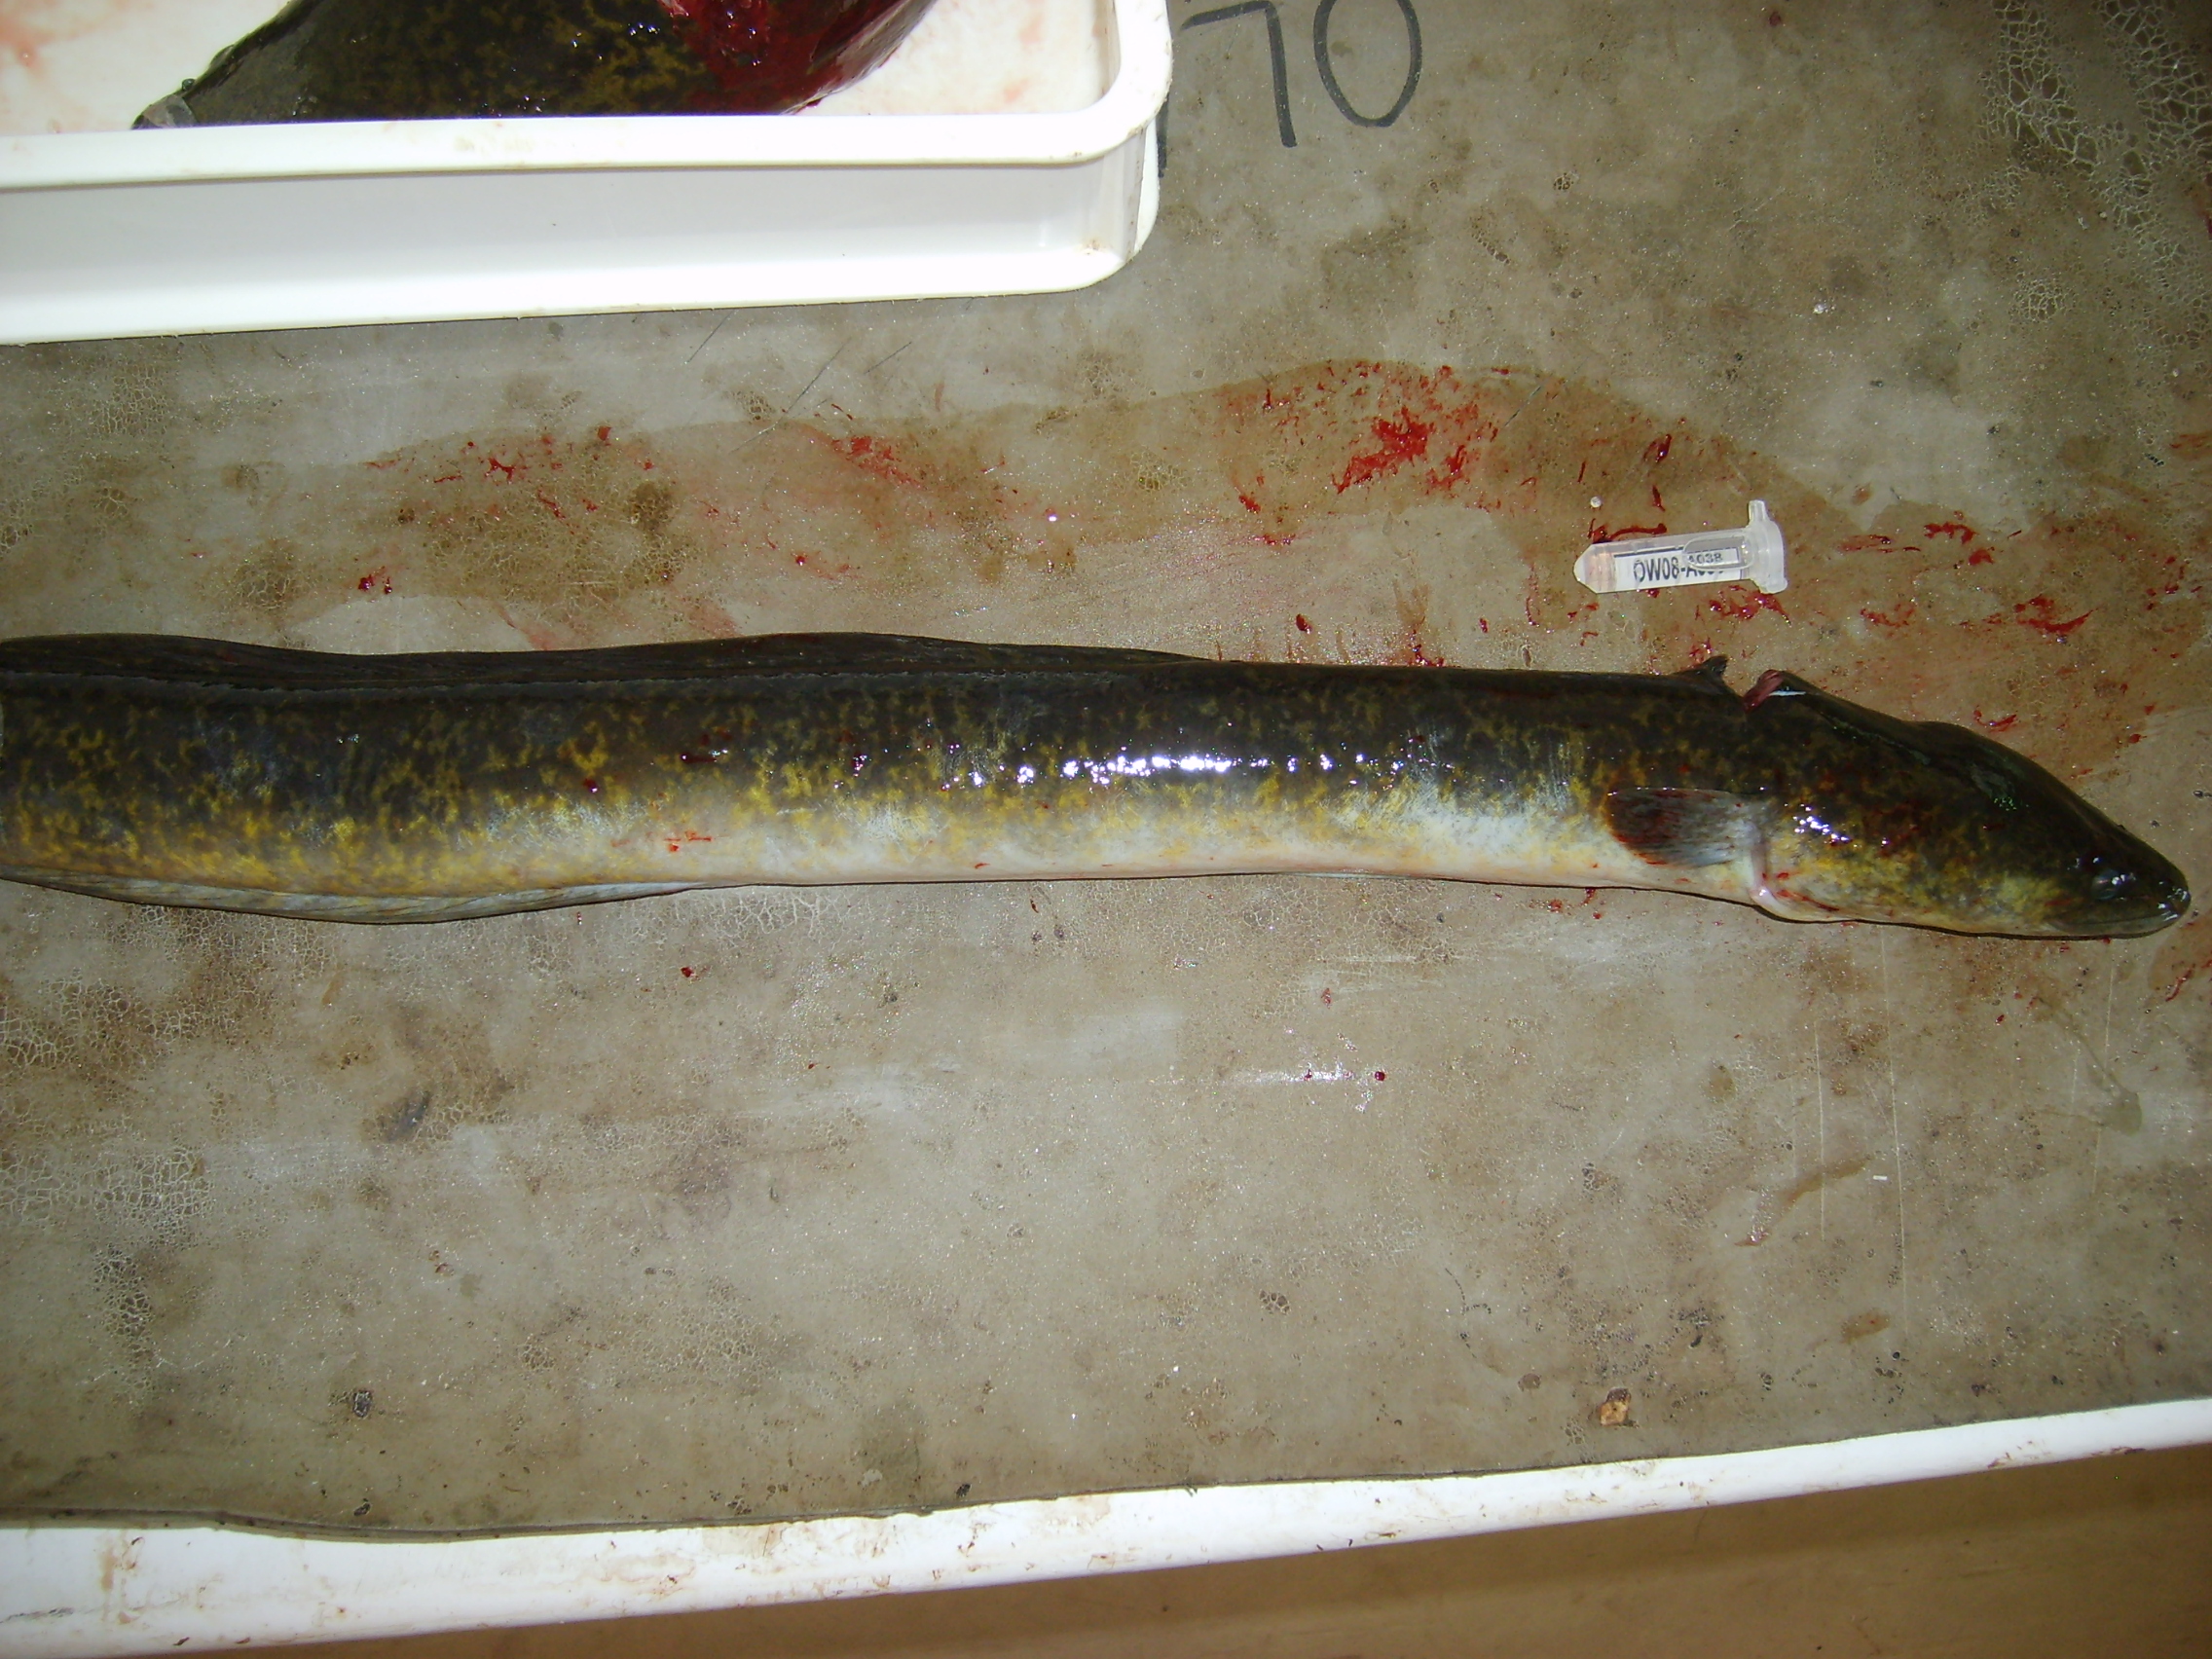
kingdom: Animalia
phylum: Chordata
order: Anguilliformes
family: Anguillidae
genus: Anguilla
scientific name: Anguilla marmorata
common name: Giant mottled eel
